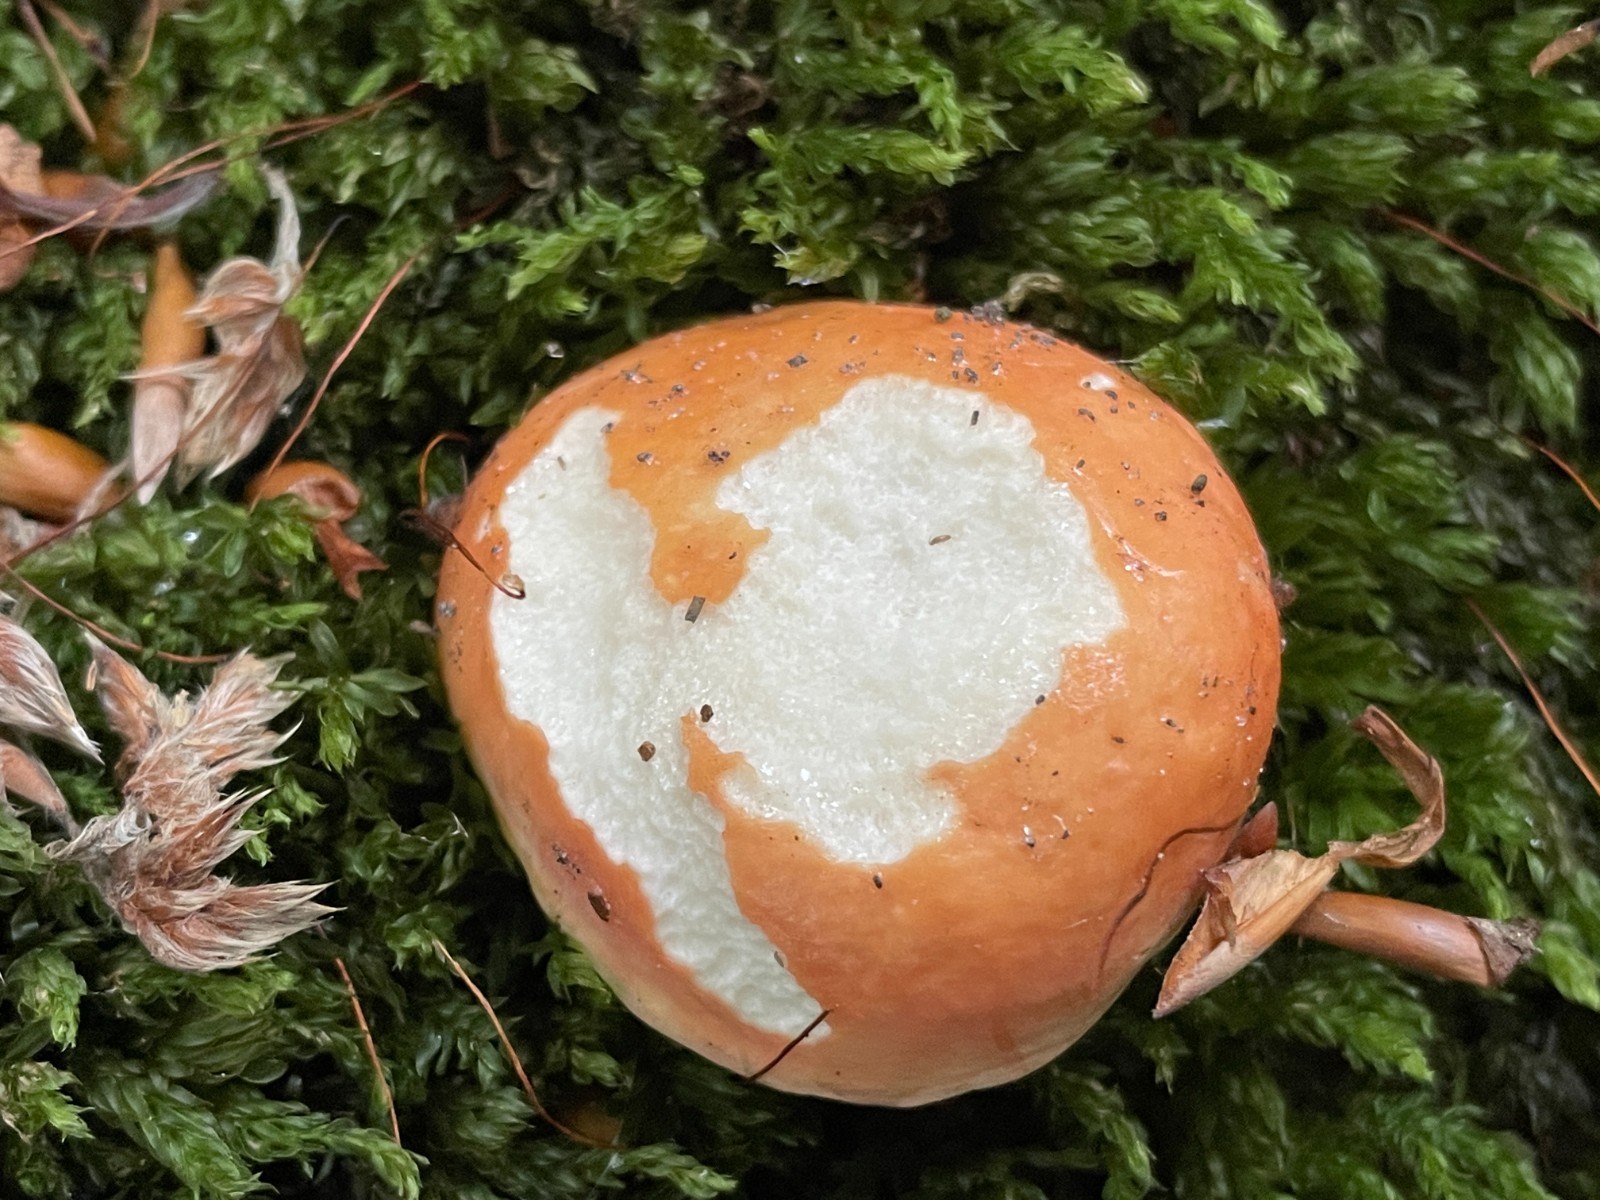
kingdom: Fungi
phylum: Basidiomycota
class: Agaricomycetes
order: Russulales
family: Russulaceae
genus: Russula
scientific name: Russula rosea
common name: fastkødet skørhat
